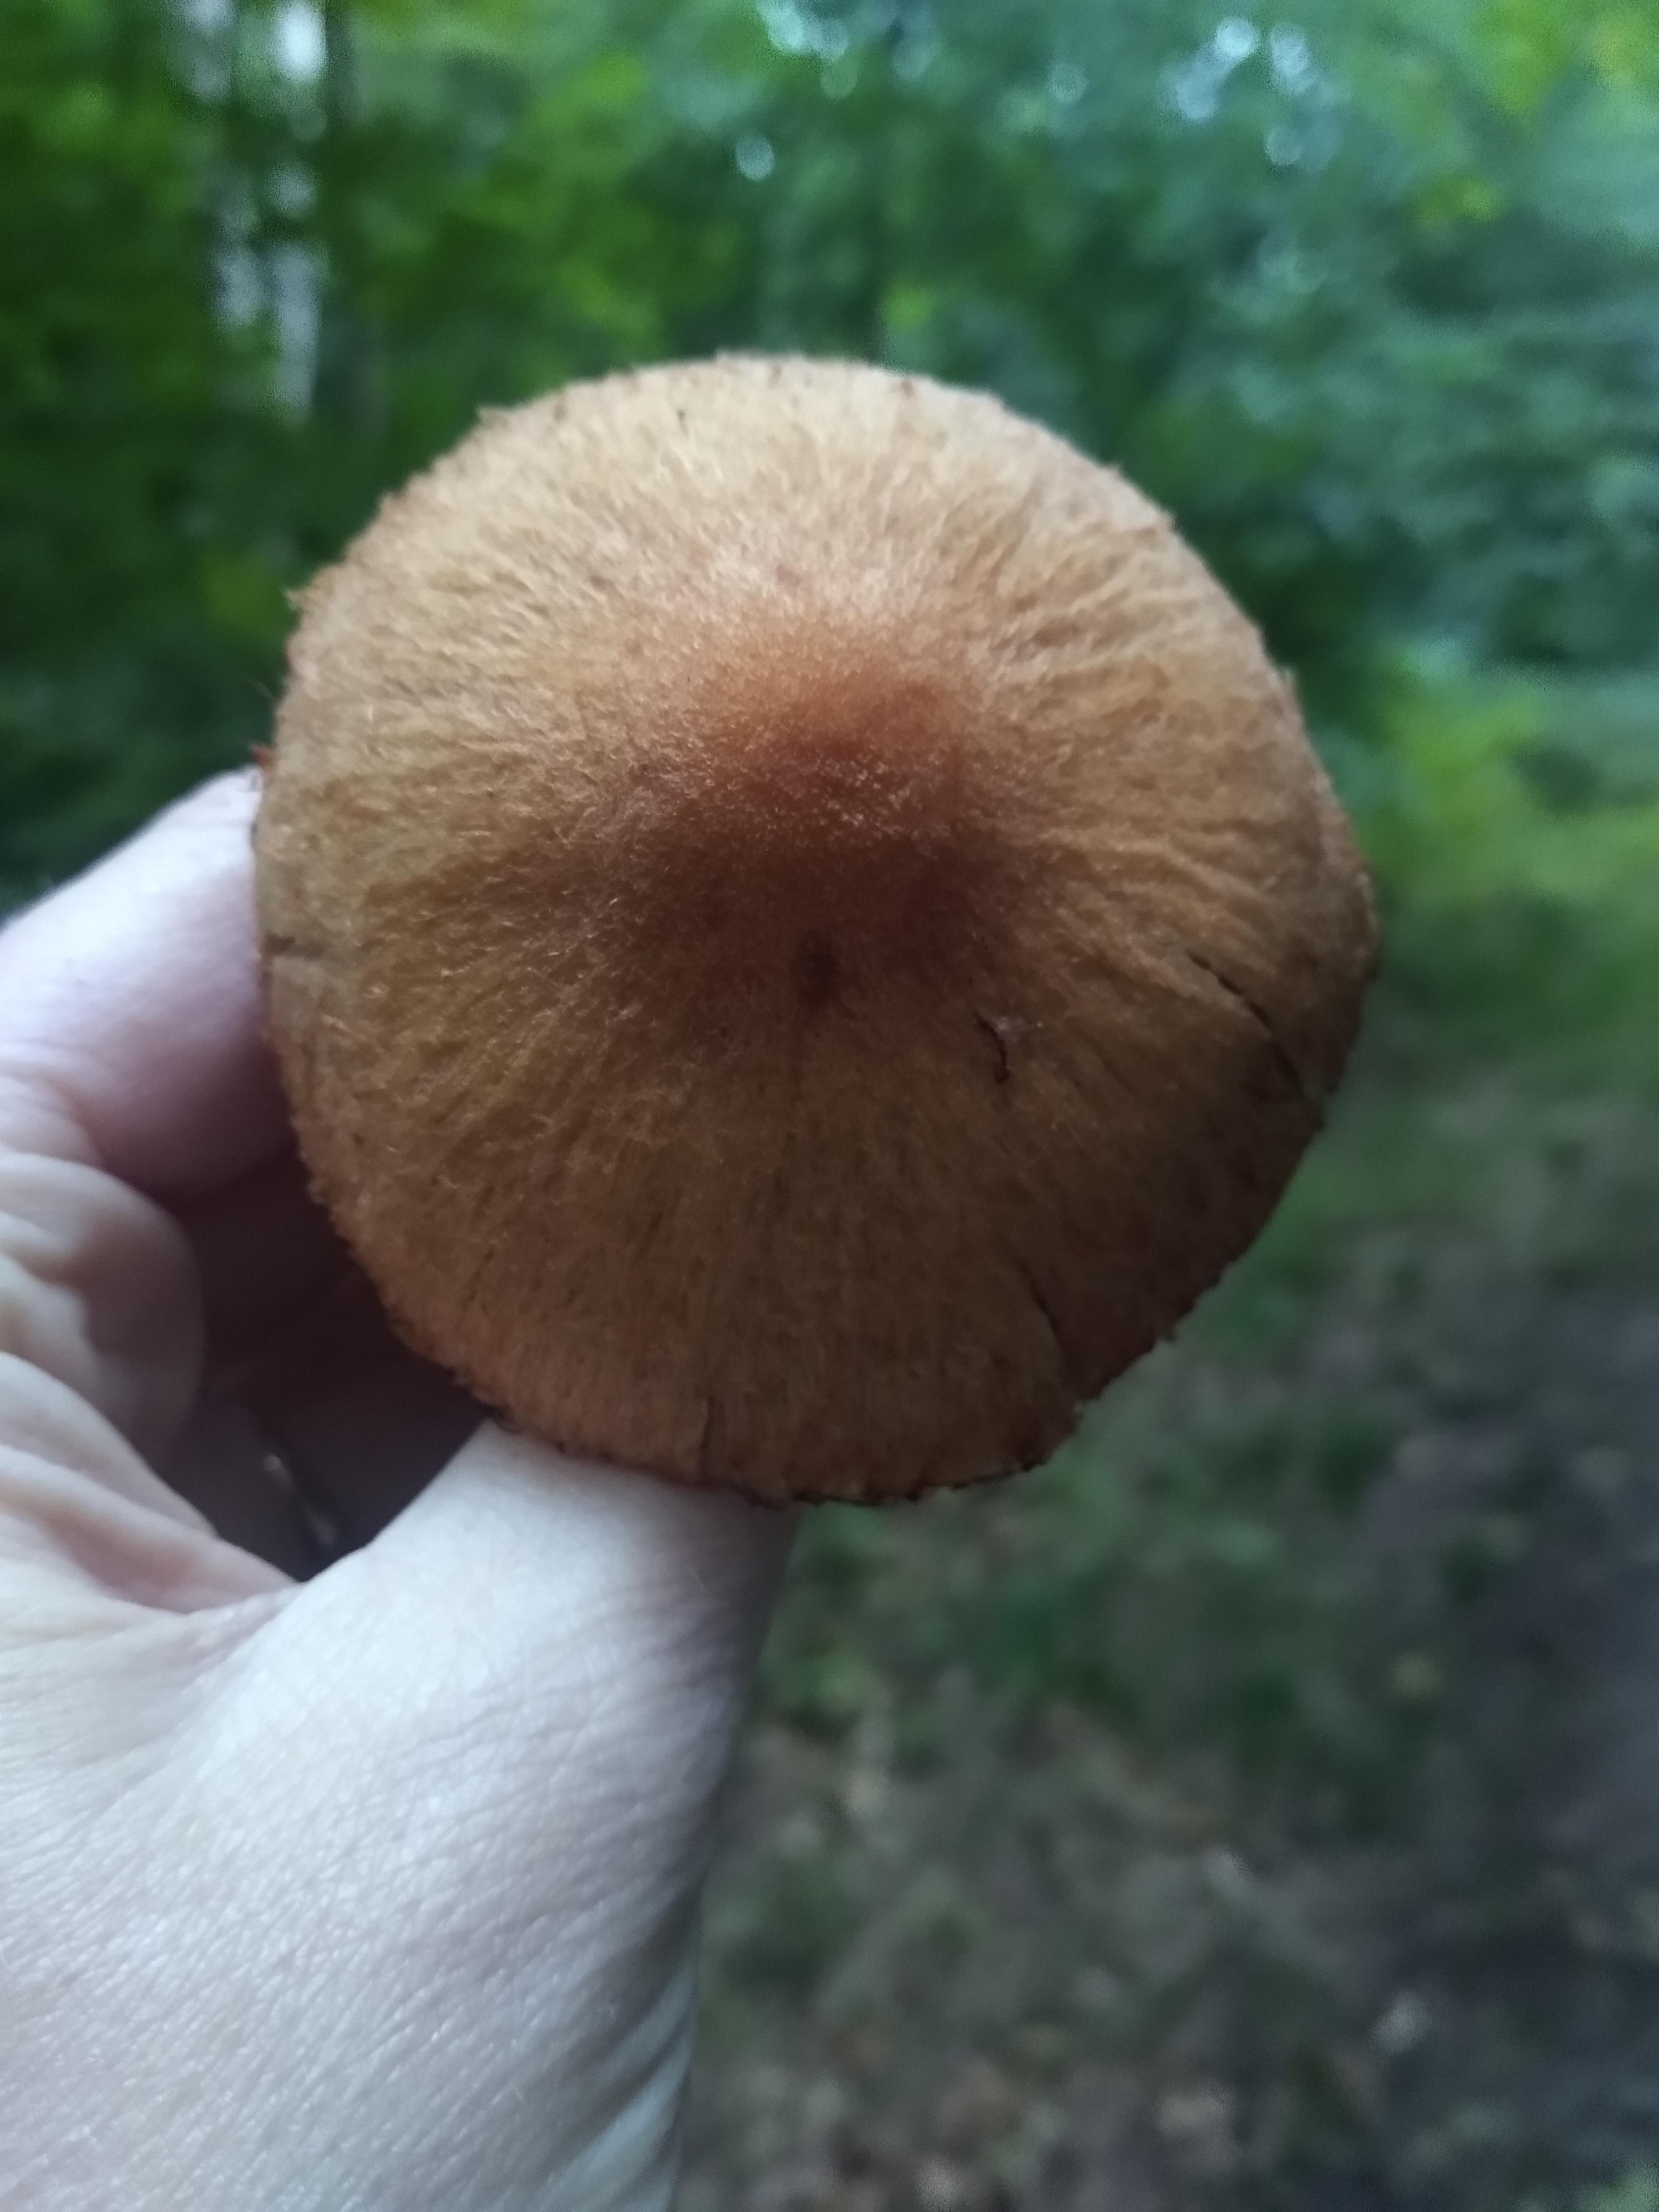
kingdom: Fungi
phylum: Basidiomycota
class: Agaricomycetes
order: Agaricales
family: Psathyrellaceae
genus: Lacrymaria
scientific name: Lacrymaria lacrymabunda
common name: grædende mørkhat
